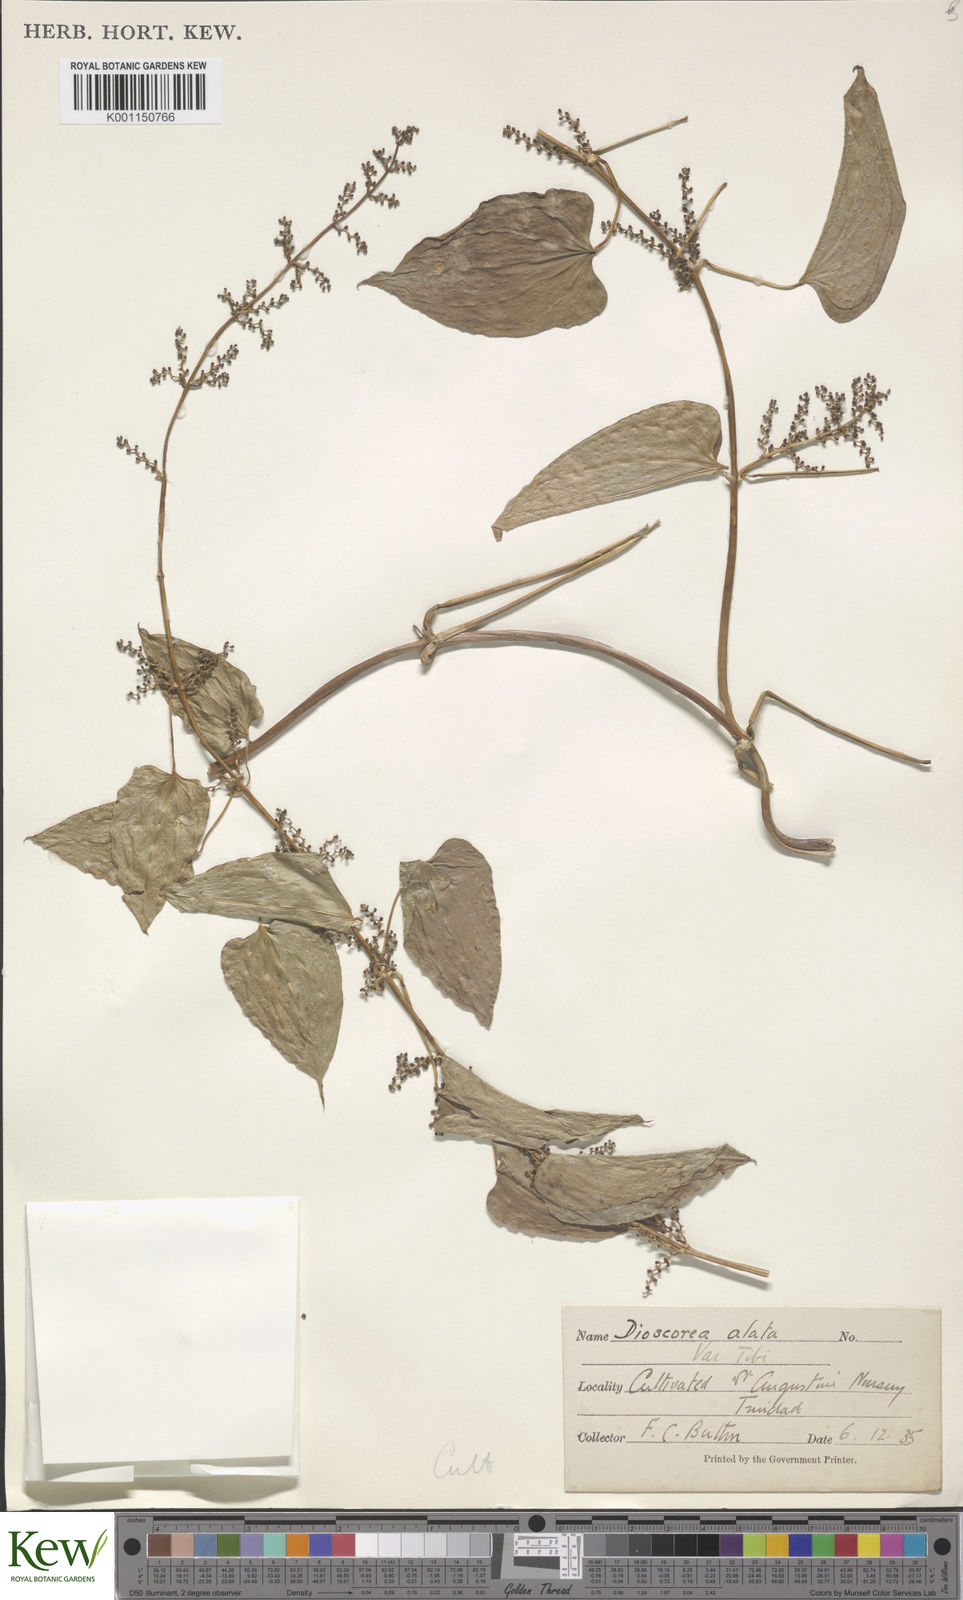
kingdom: Plantae
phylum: Tracheophyta
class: Liliopsida
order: Dioscoreales
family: Dioscoreaceae
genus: Dioscorea
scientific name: Dioscorea alata
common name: Water yam
